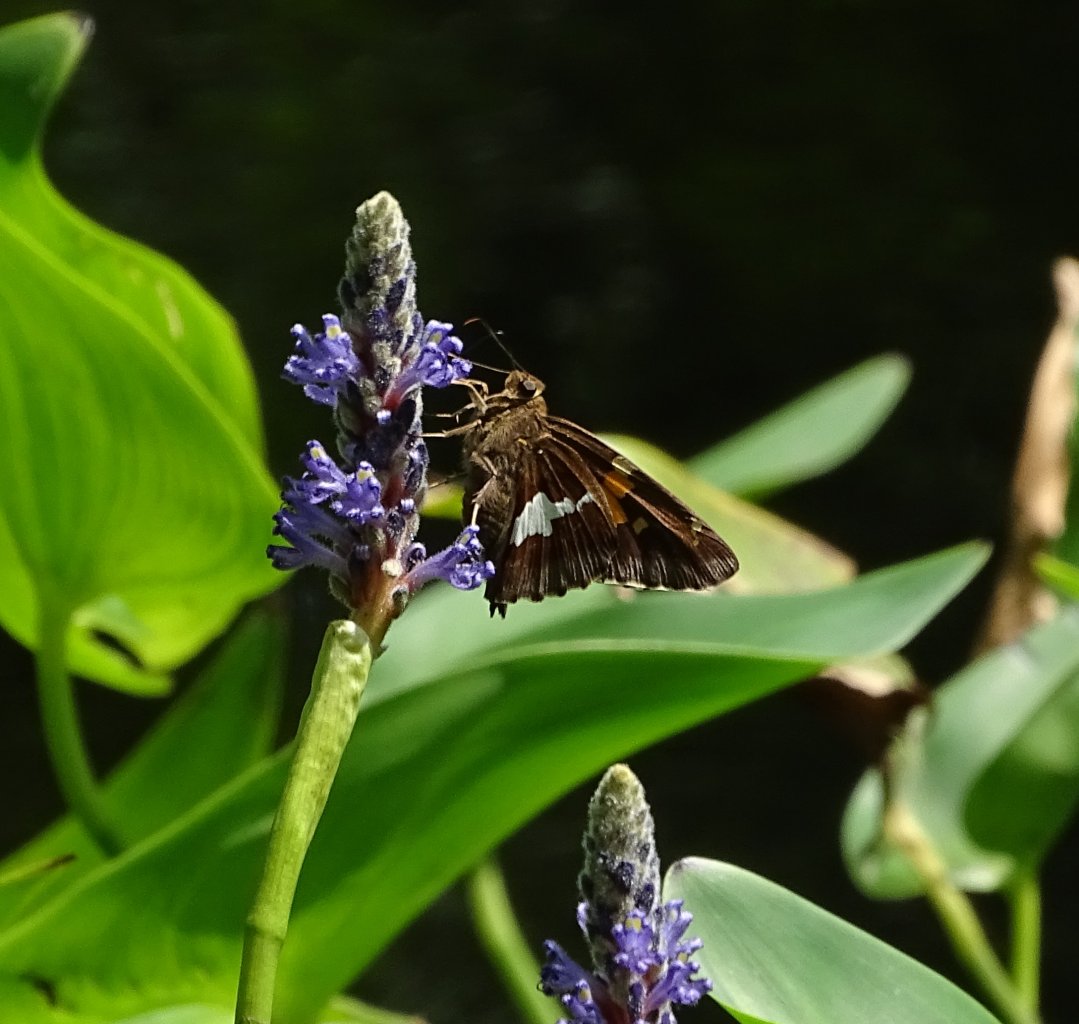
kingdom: Animalia
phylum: Arthropoda
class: Insecta
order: Lepidoptera
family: Hesperiidae
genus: Epargyreus
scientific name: Epargyreus clarus
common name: Silver-spotted Skipper
